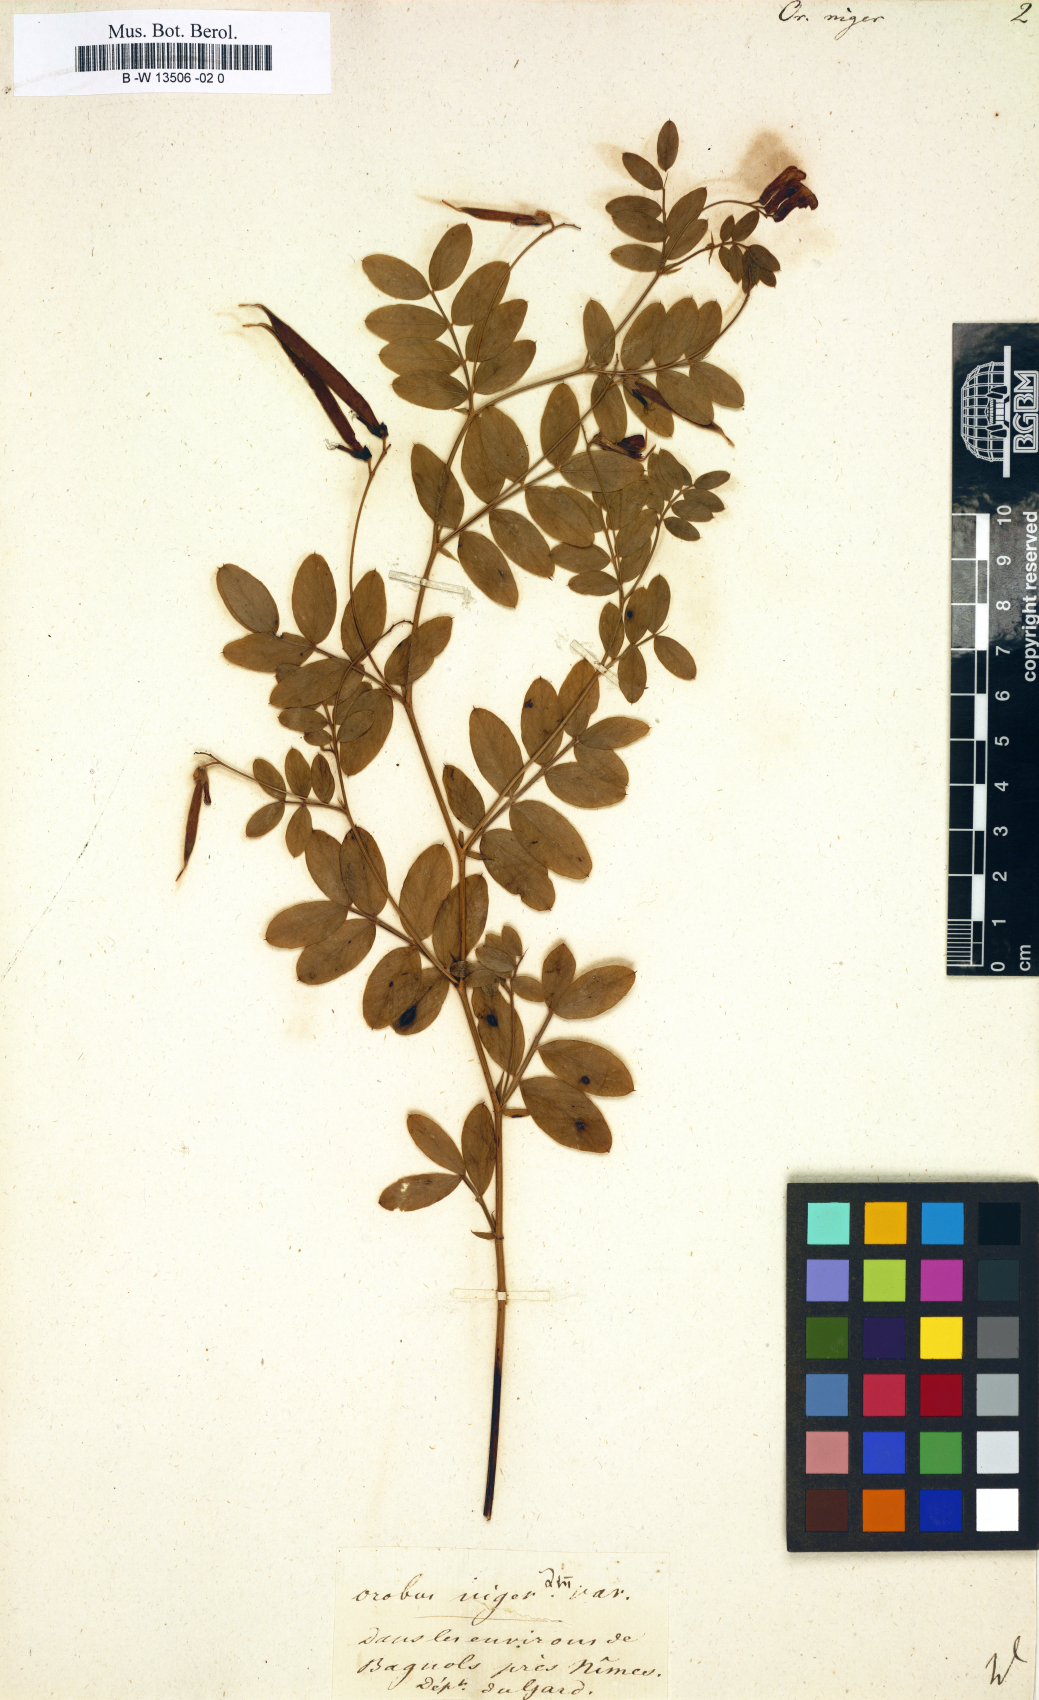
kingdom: Plantae
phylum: Tracheophyta
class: Magnoliopsida
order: Fabales
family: Fabaceae
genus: Lathyrus
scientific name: Lathyrus niger
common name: Black pea
